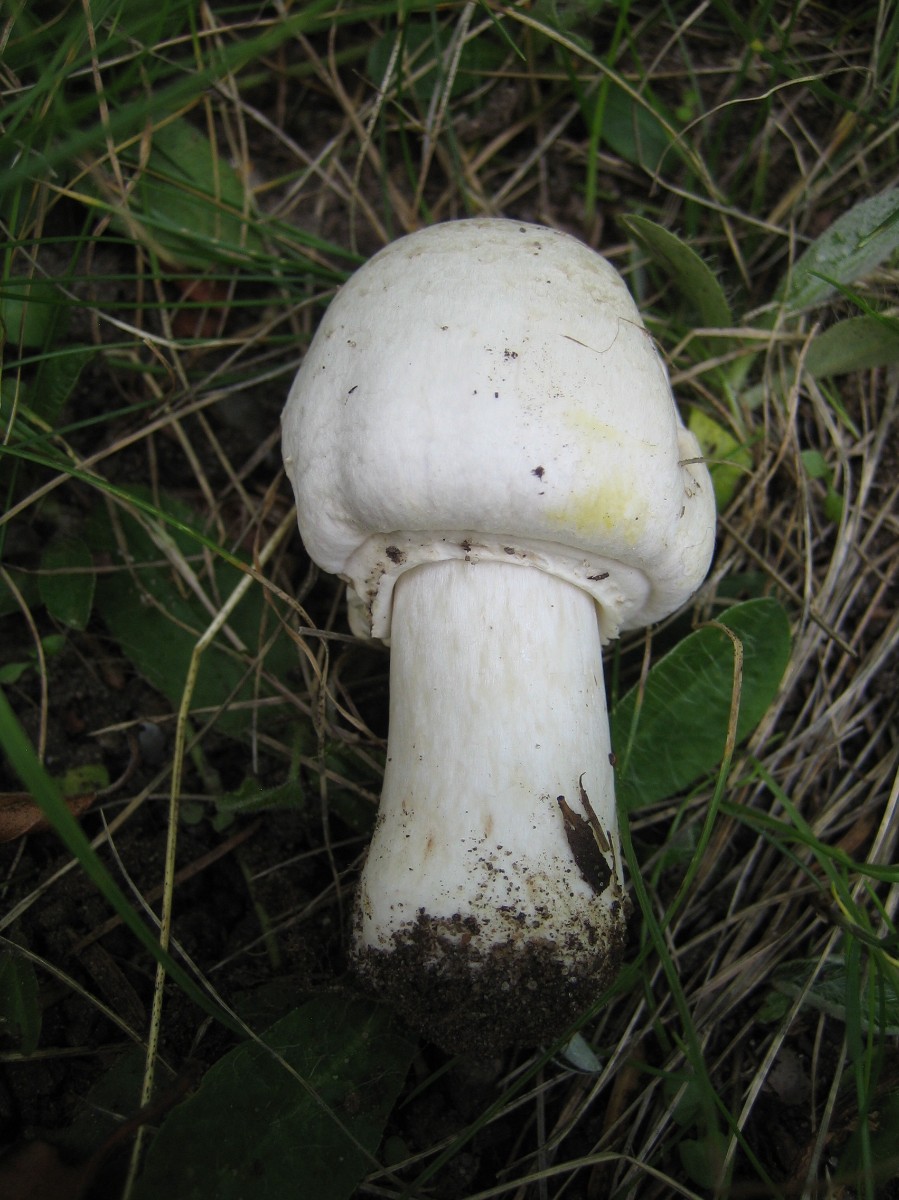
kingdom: Fungi
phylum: Basidiomycota
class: Agaricomycetes
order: Agaricales
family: Agaricaceae
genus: Agaricus
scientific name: Agaricus xanthodermus
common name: karbol-champignon
